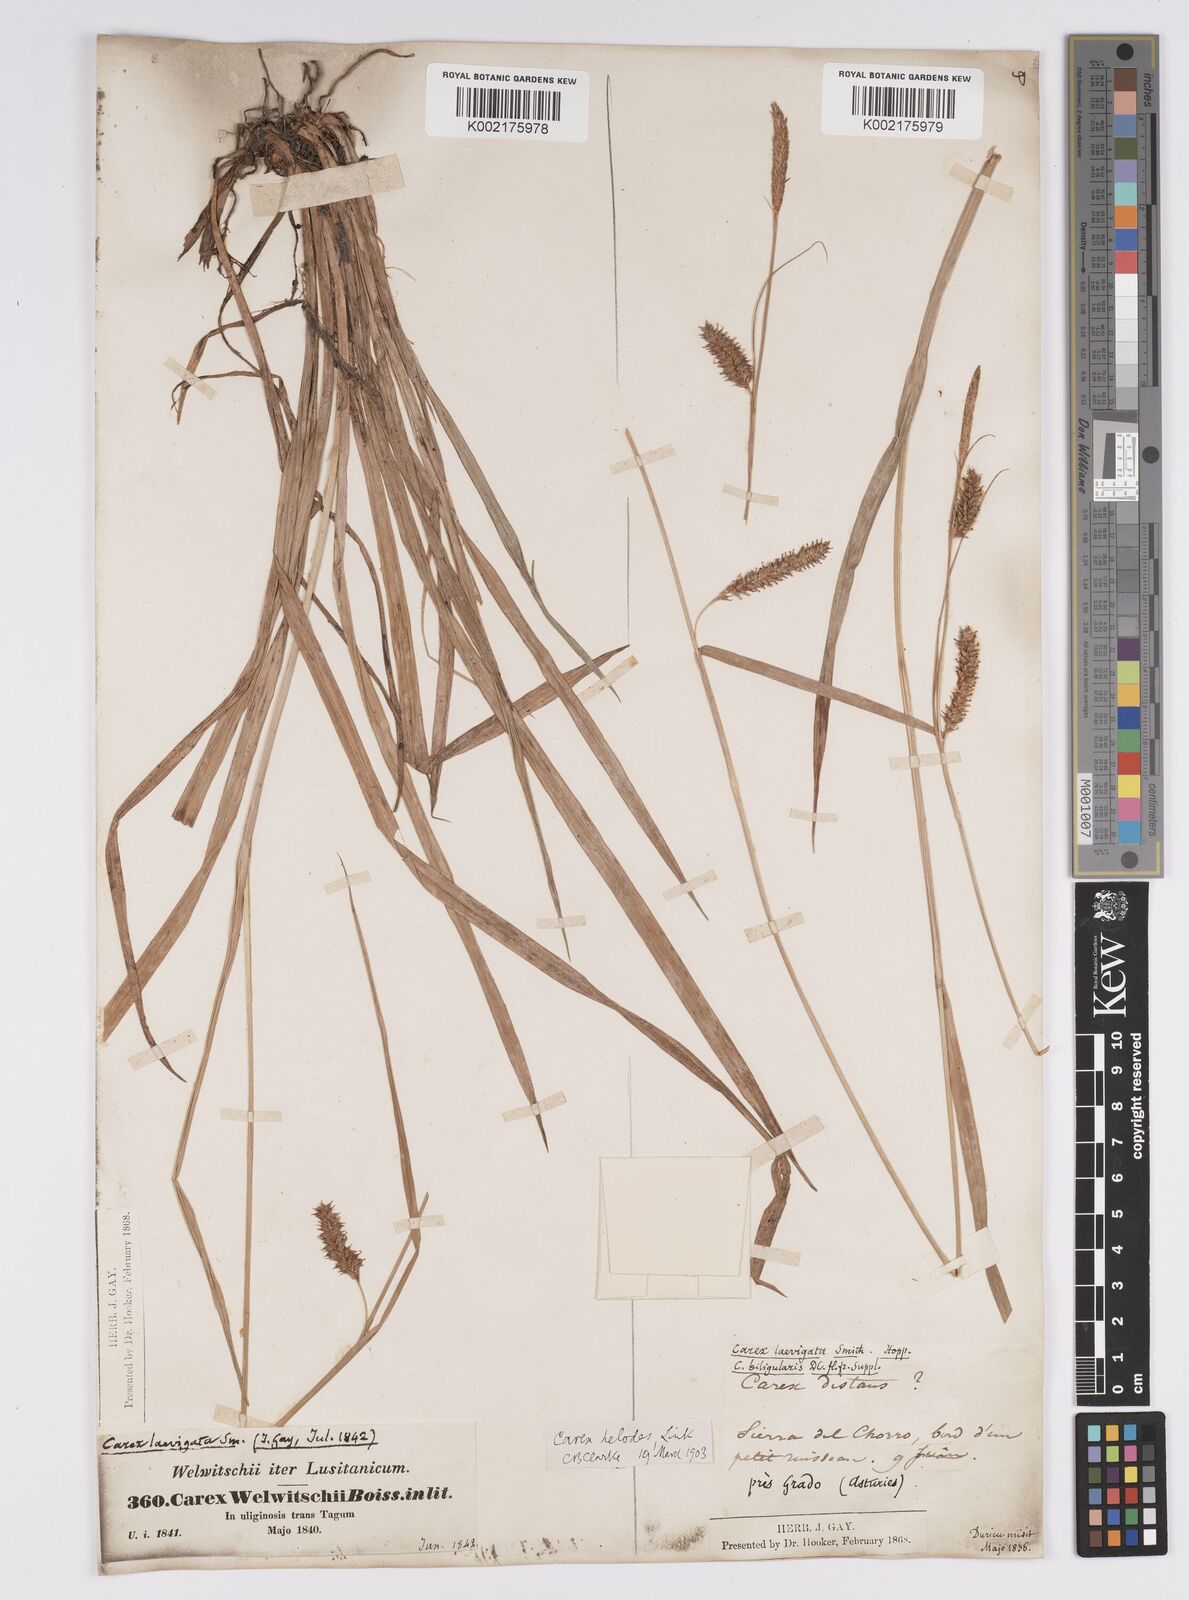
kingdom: Plantae
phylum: Tracheophyta
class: Liliopsida
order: Poales
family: Cyperaceae
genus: Carex
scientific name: Carex laevigata
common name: Smooth-stalked sedge
